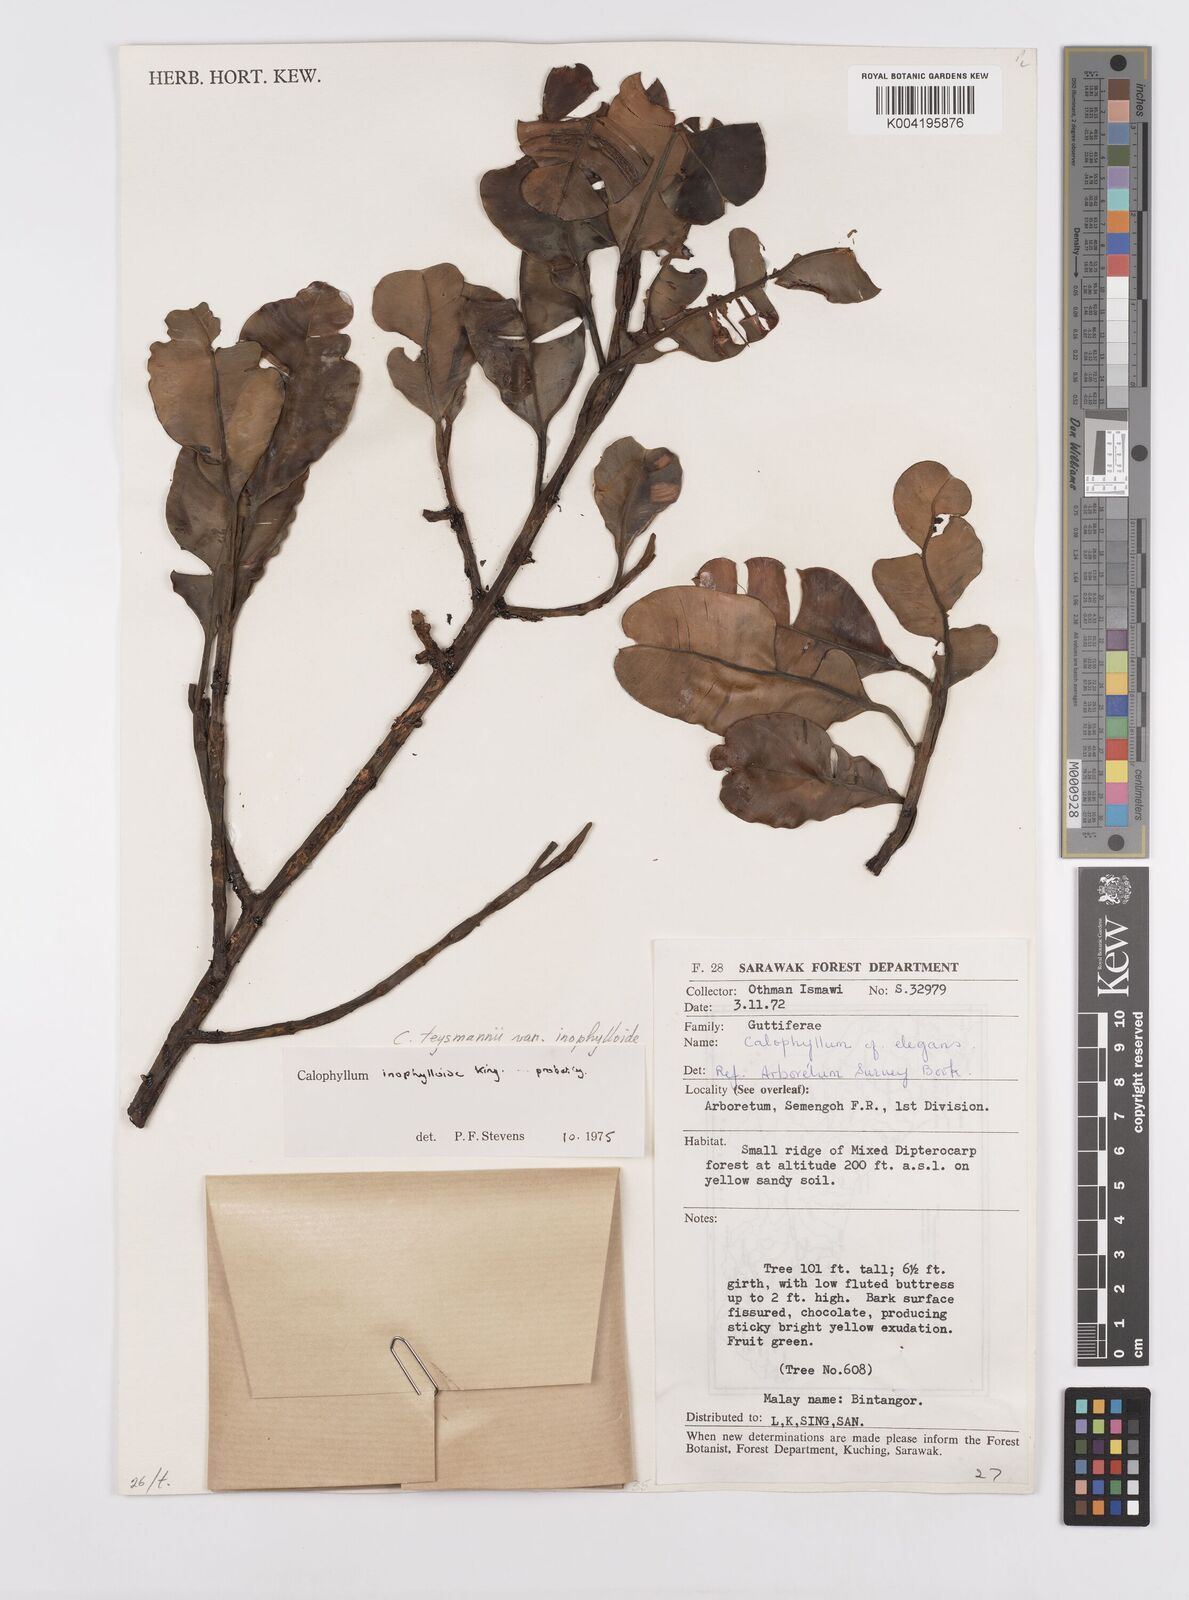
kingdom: Plantae
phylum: Tracheophyta
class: Magnoliopsida
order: Malpighiales
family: Calophyllaceae
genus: Calophyllum
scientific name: Calophyllum teysmannii
